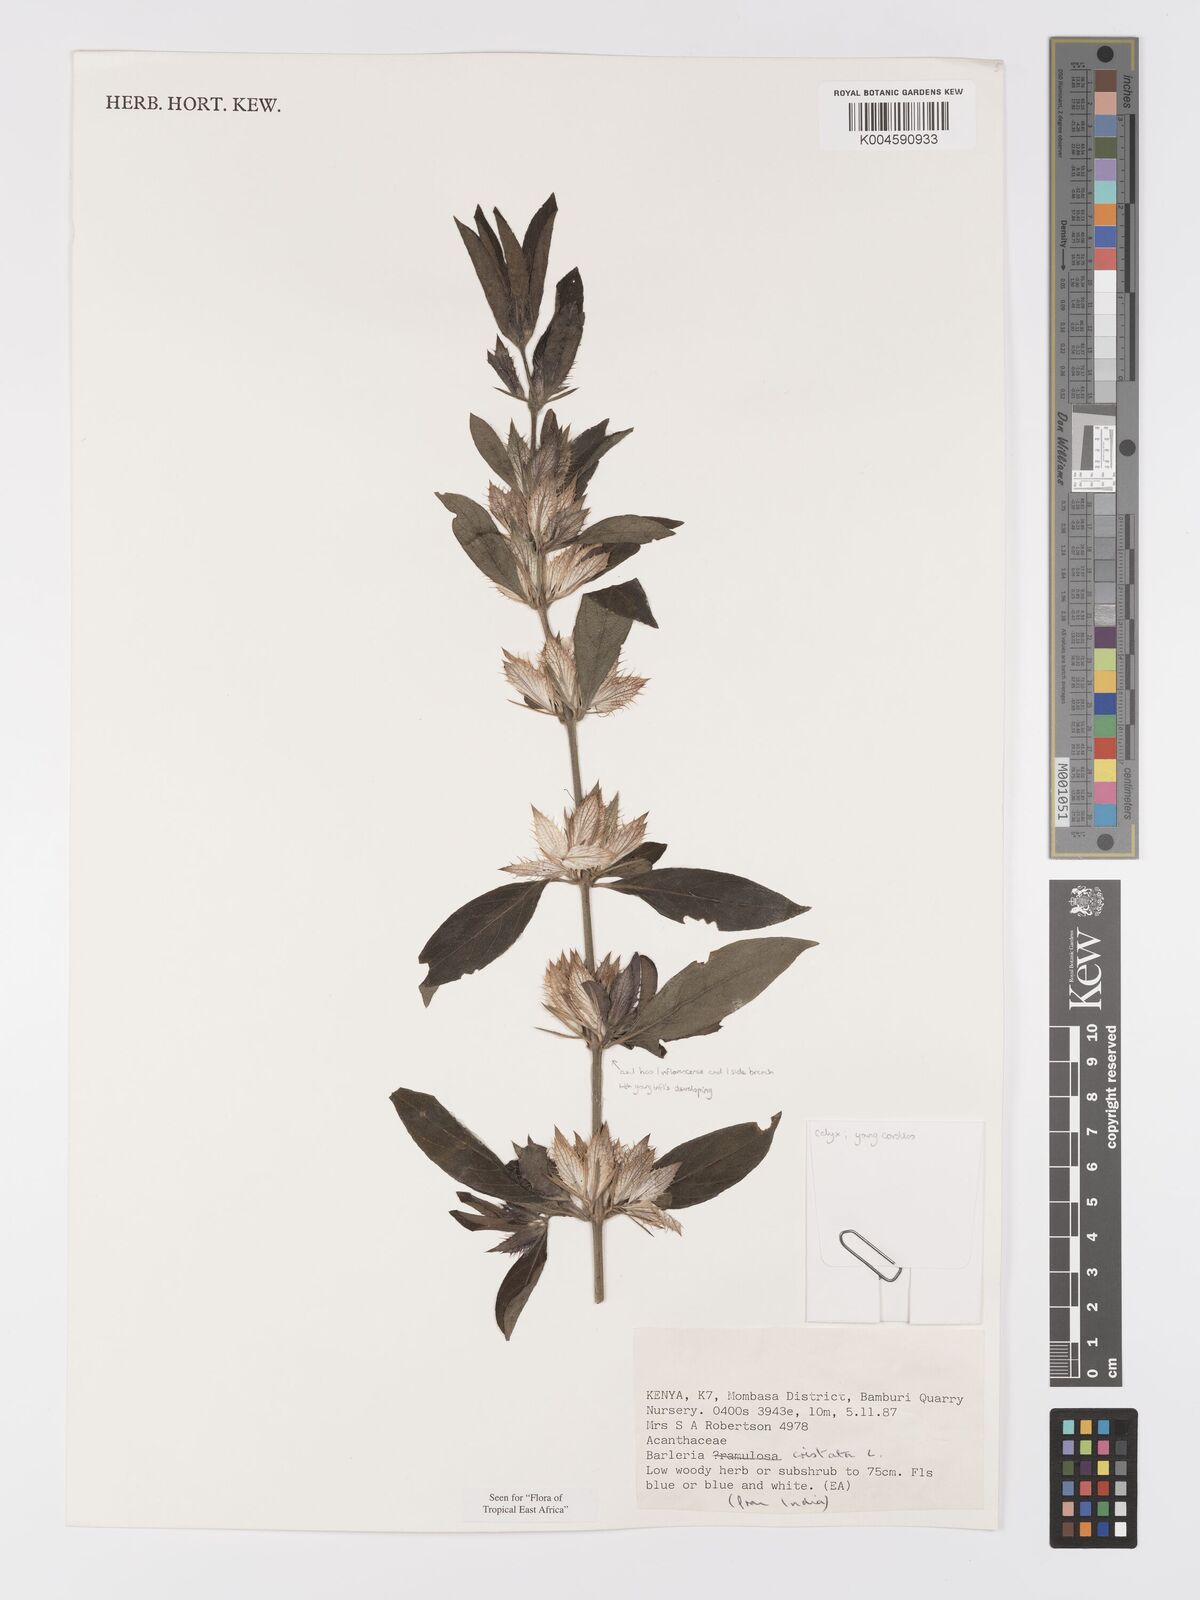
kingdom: Plantae
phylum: Tracheophyta
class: Magnoliopsida
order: Lamiales
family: Acanthaceae
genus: Barleria
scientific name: Barleria cristata
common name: Crested philippine violet
